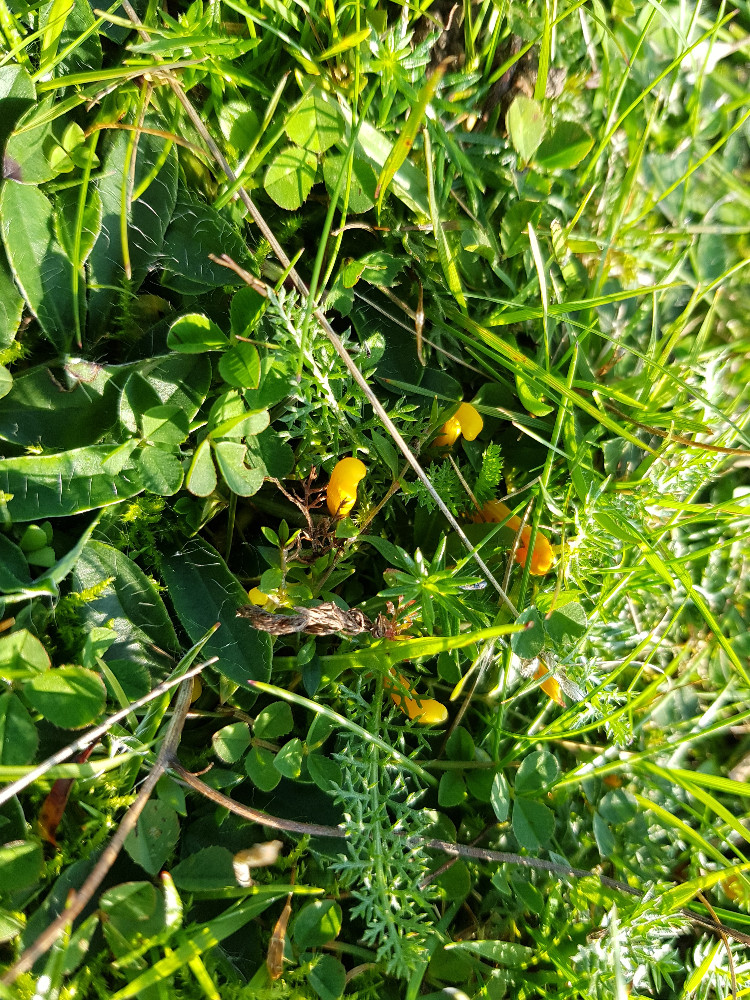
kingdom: Fungi
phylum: Basidiomycota
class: Agaricomycetes
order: Agaricales
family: Clavariaceae
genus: Clavulinopsis
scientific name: Clavulinopsis
